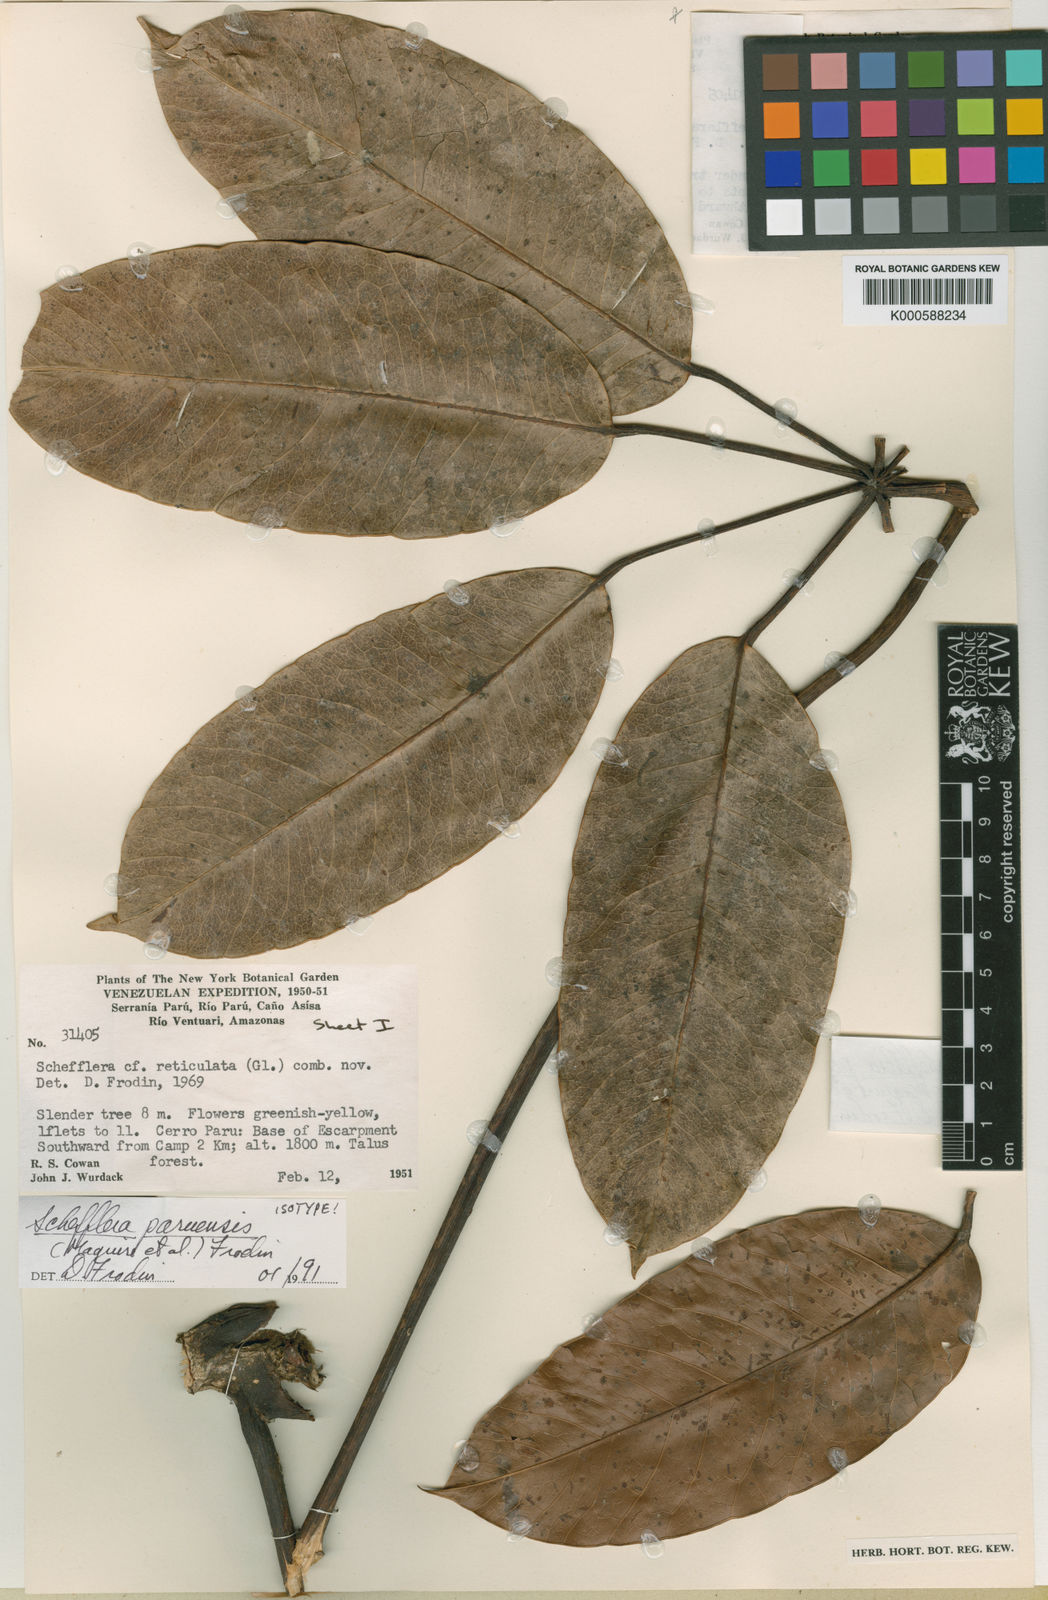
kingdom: Plantae
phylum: Tracheophyta
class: Magnoliopsida
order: Apiales
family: Araliaceae
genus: Sciodaphyllum
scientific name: Sciodaphyllum
